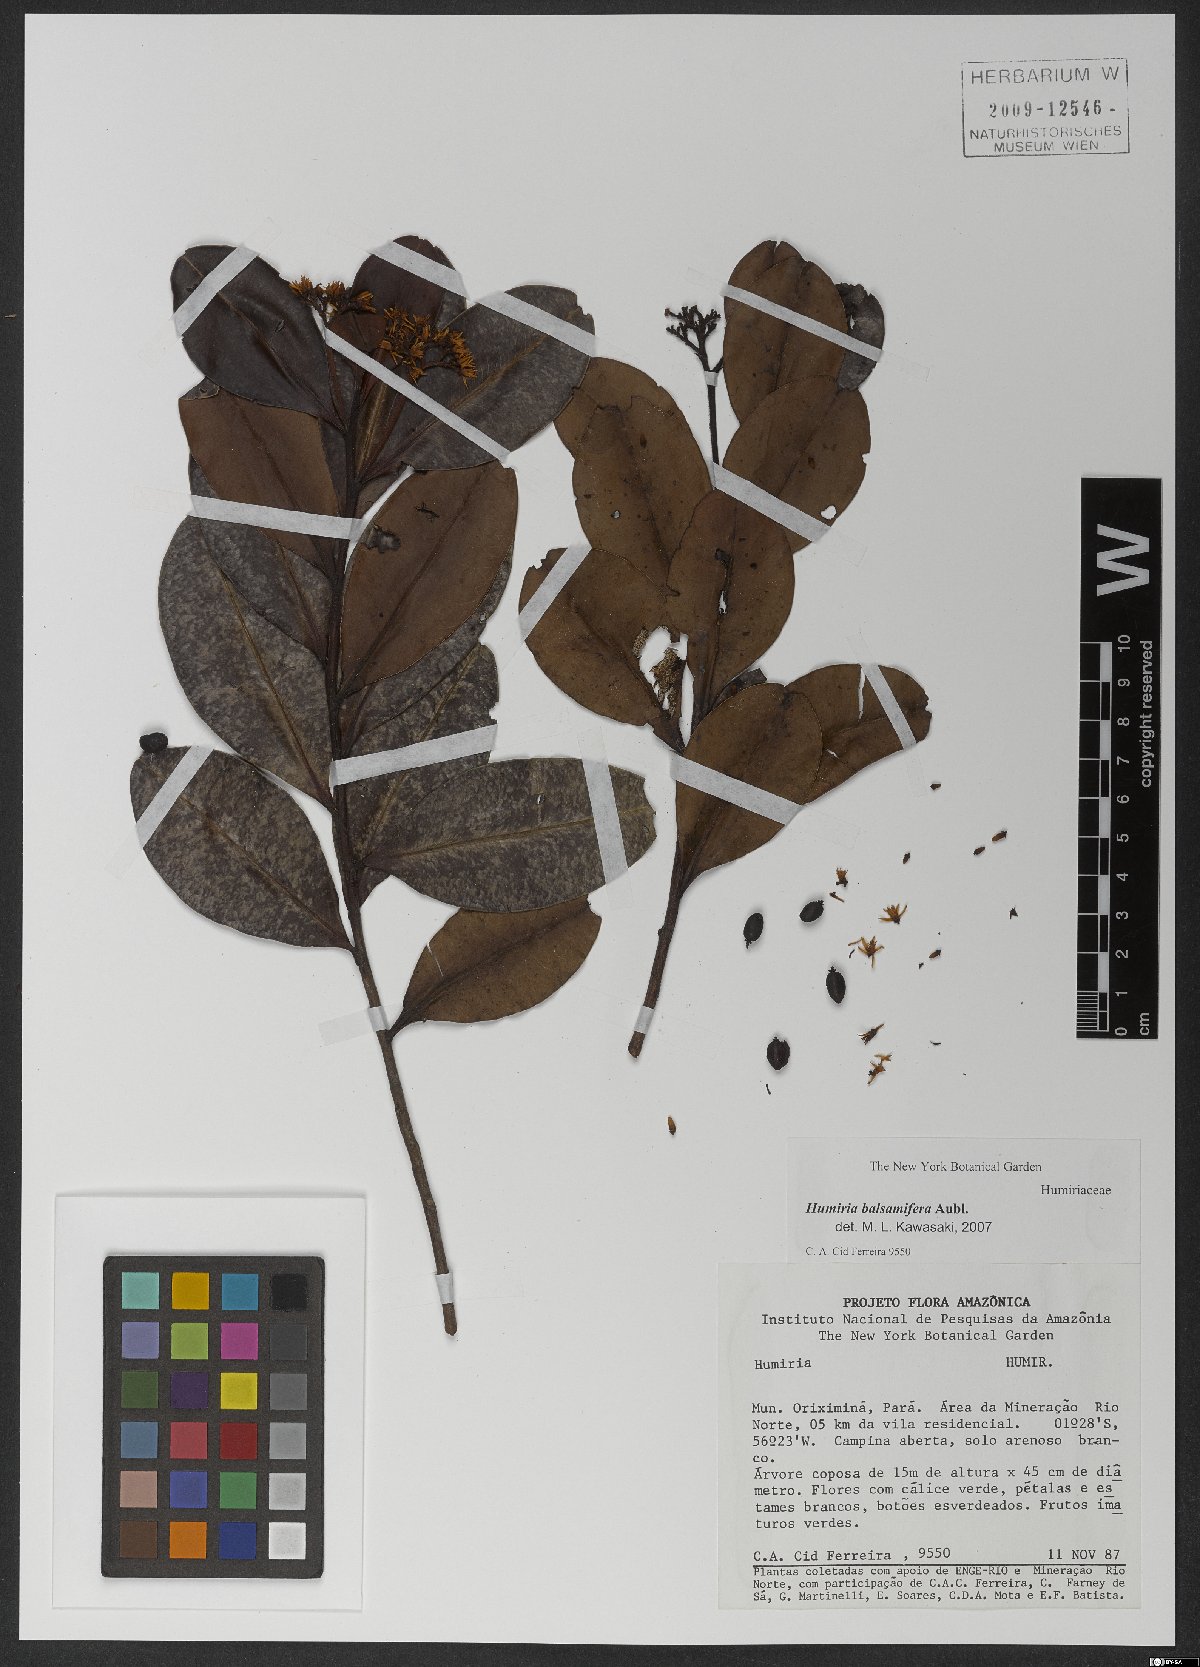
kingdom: Plantae
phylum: Tracheophyta
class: Magnoliopsida
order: Malpighiales
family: Humiriaceae
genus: Humiria
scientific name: Humiria balsamifera
